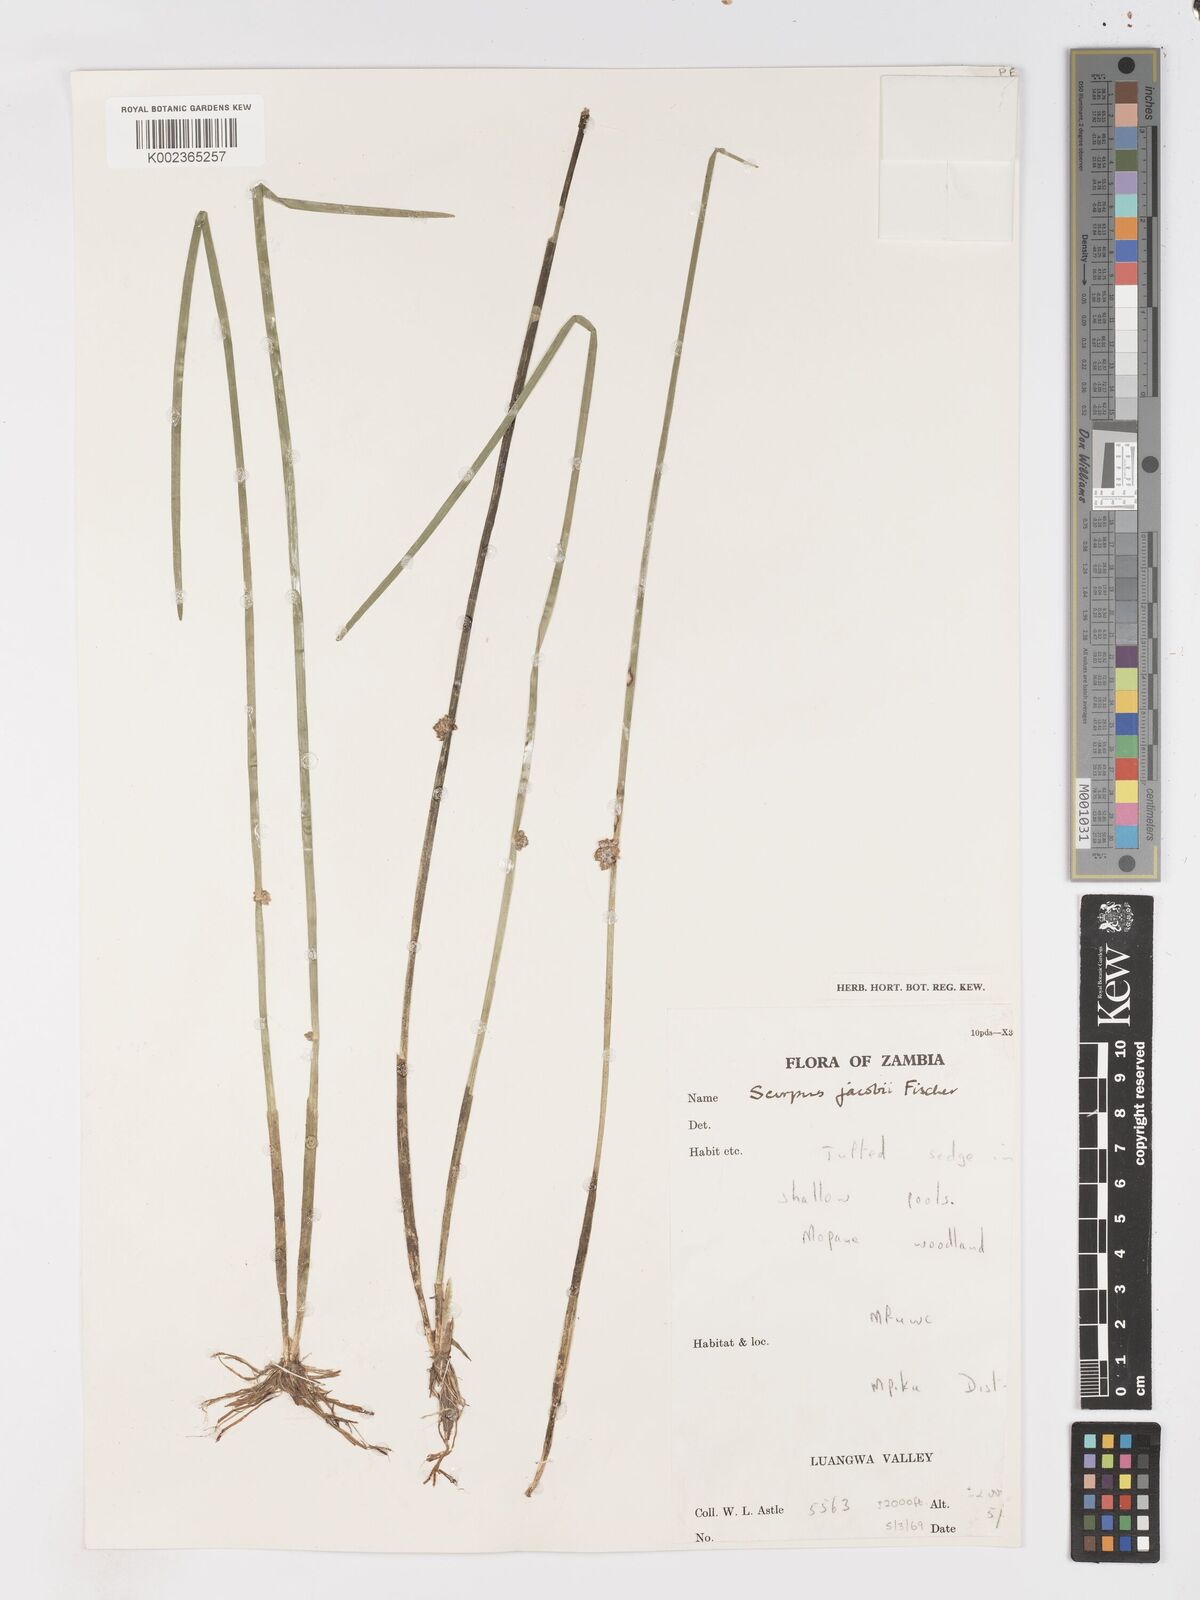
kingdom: Plantae
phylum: Tracheophyta
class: Liliopsida
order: Poales
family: Cyperaceae
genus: Schoenoplectiella
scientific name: Schoenoplectiella senegalensis
